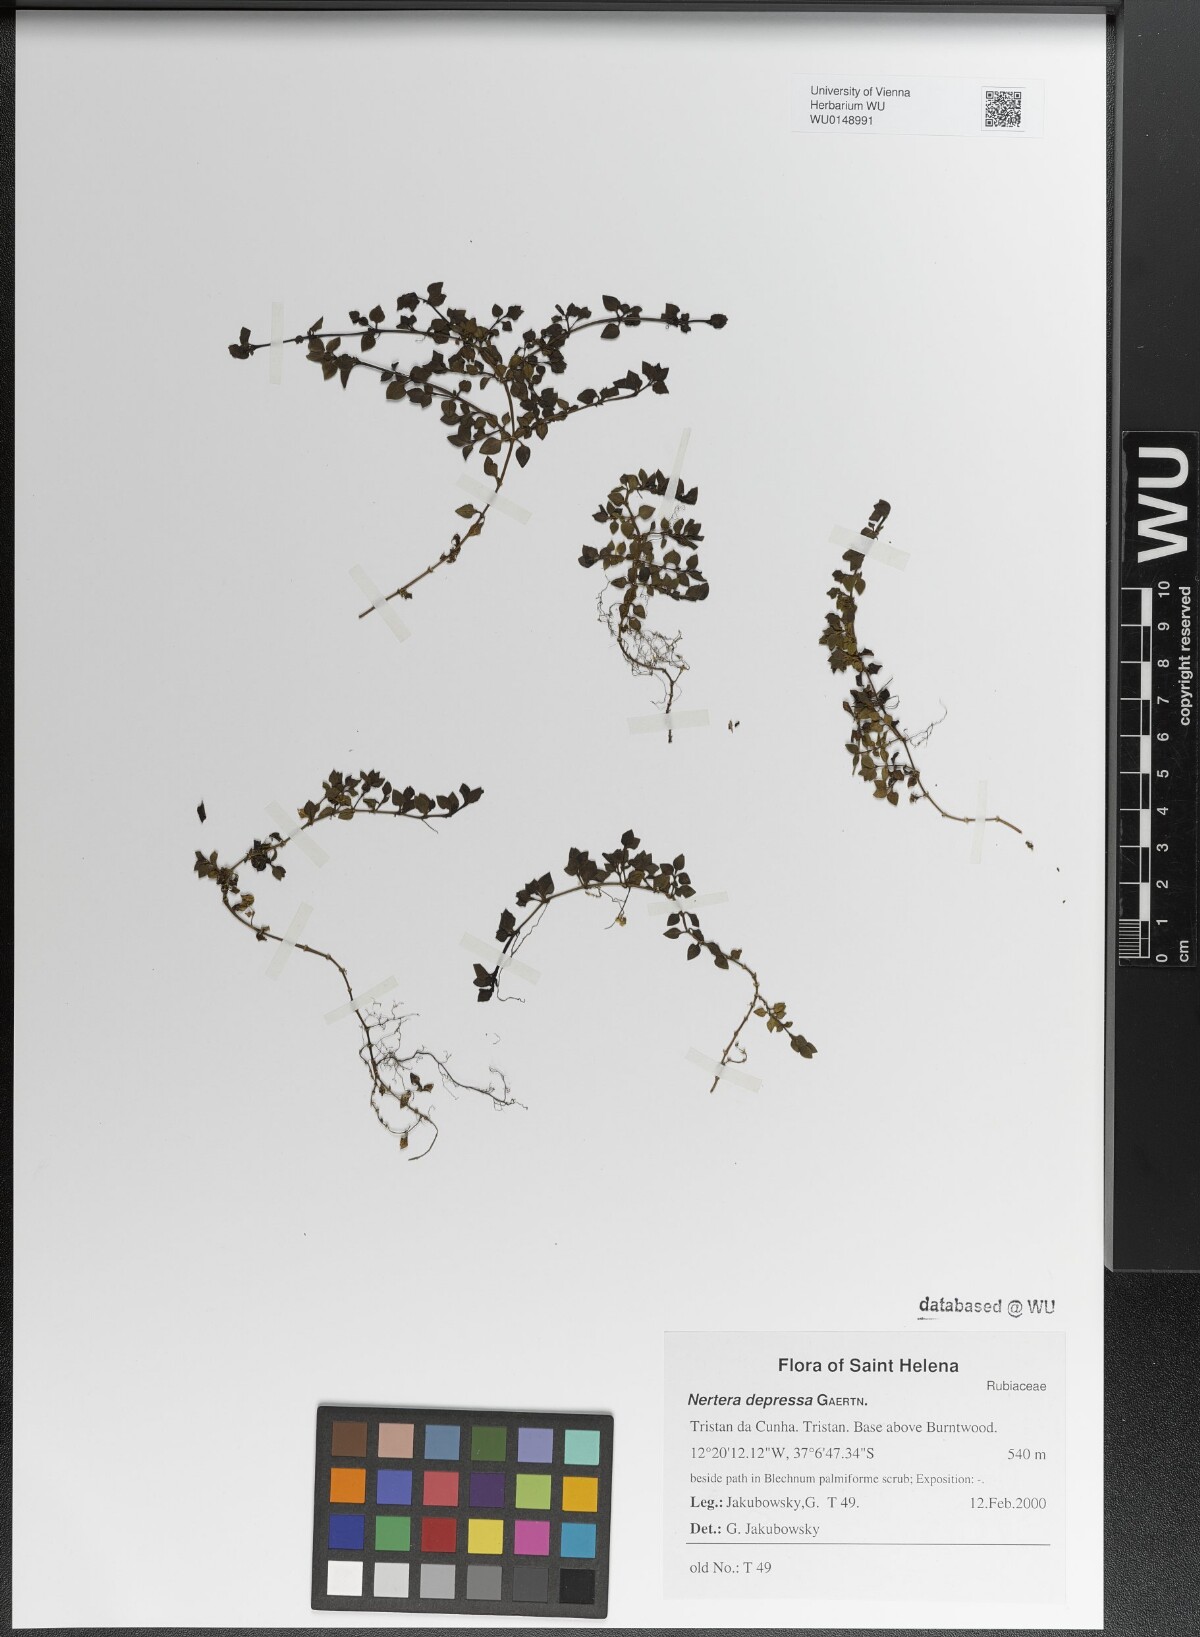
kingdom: Plantae
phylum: Tracheophyta
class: Magnoliopsida
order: Gentianales
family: Rubiaceae
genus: Nertera
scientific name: Nertera granadensis
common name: Beadplant
